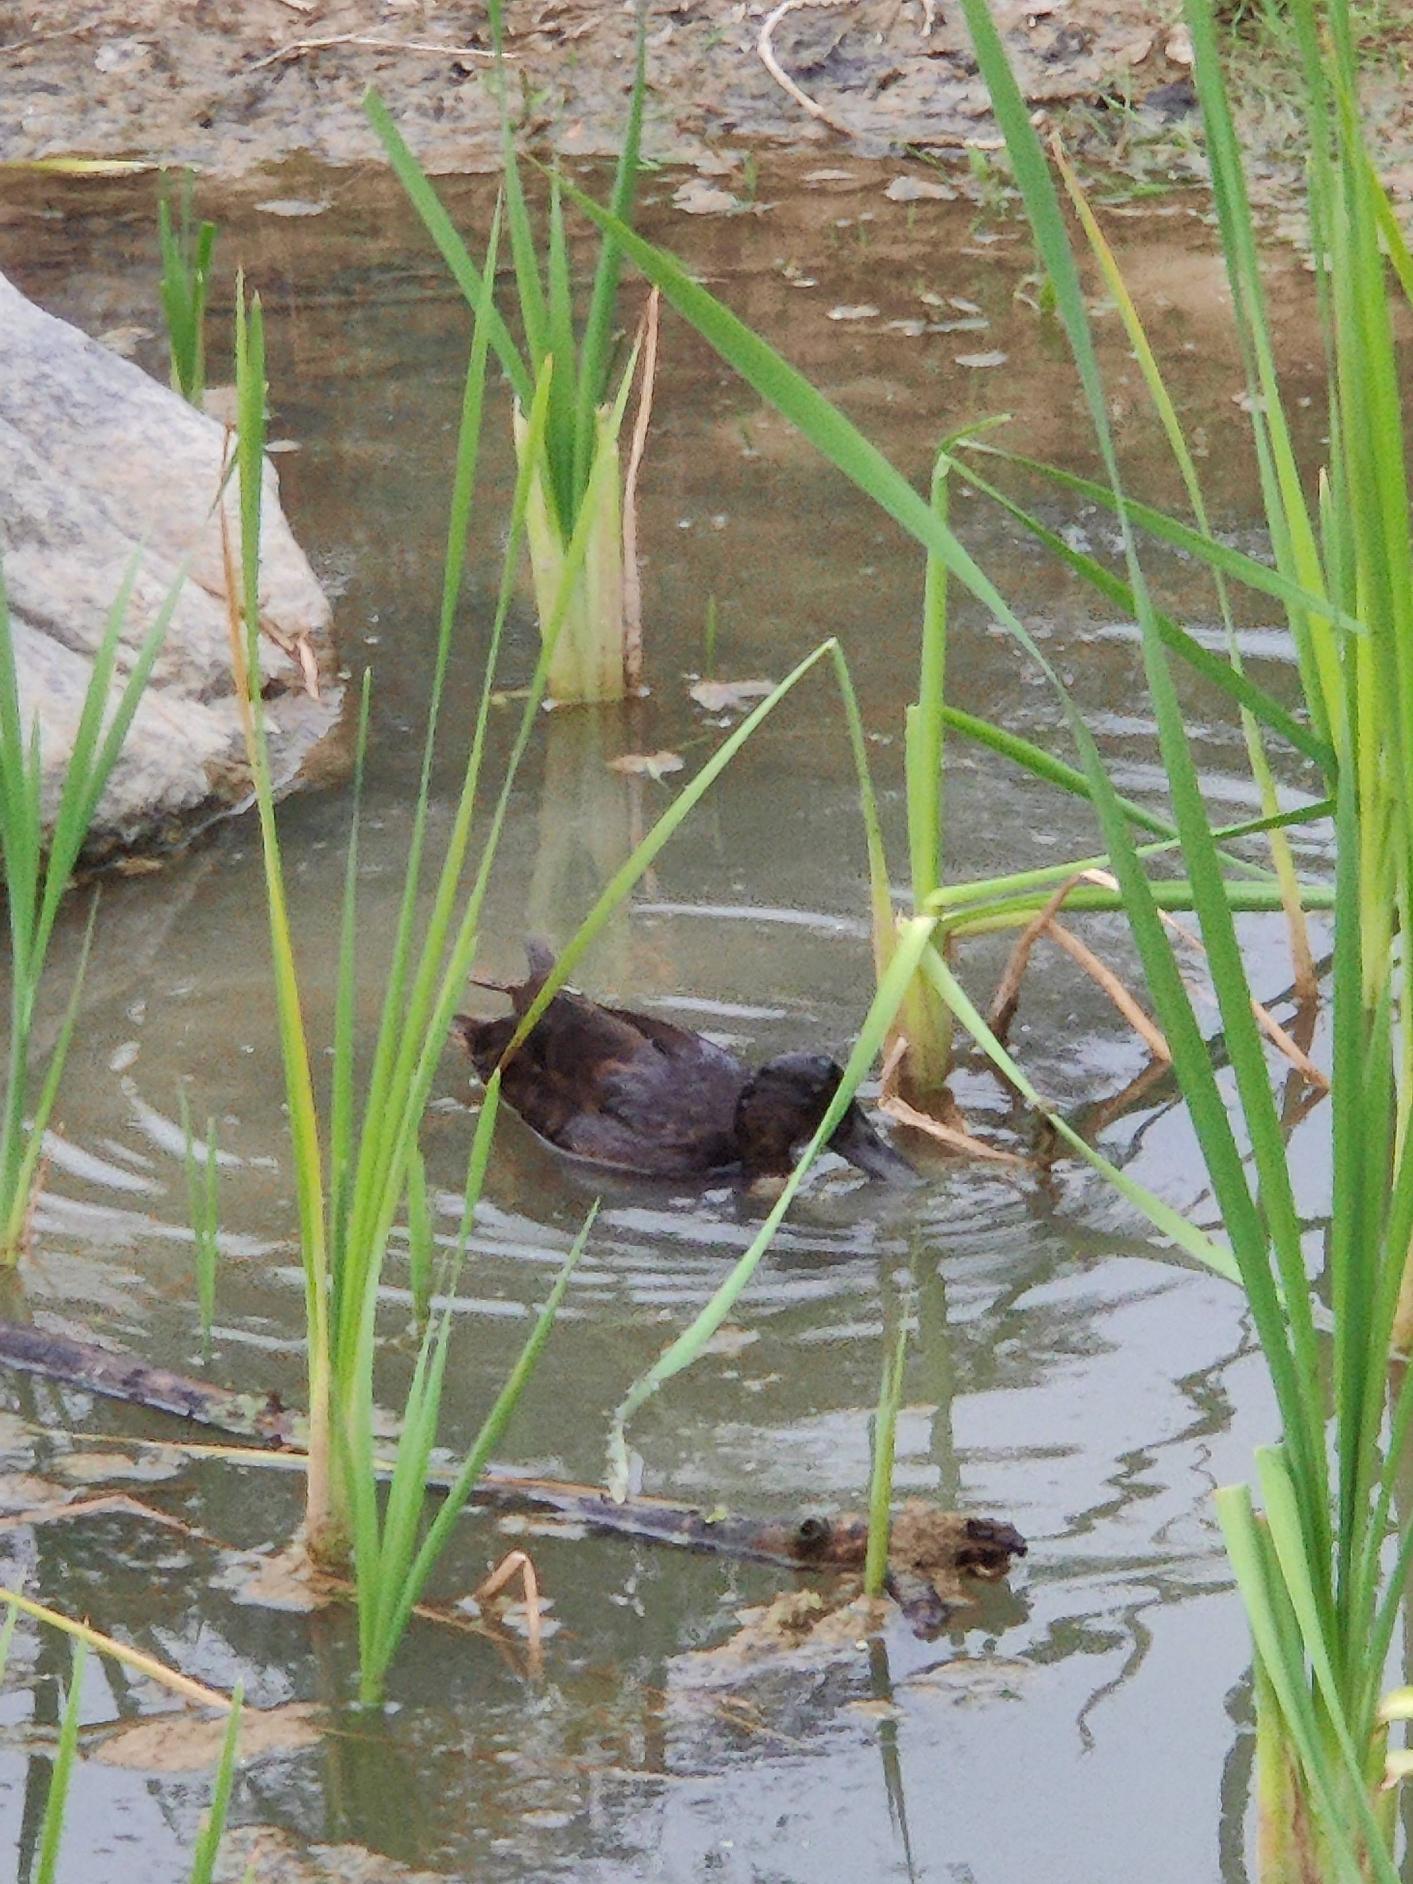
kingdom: Animalia
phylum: Chordata
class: Aves
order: Anseriformes
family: Anatidae
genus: Anas
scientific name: Anas platyrhynchos
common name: Gråand
